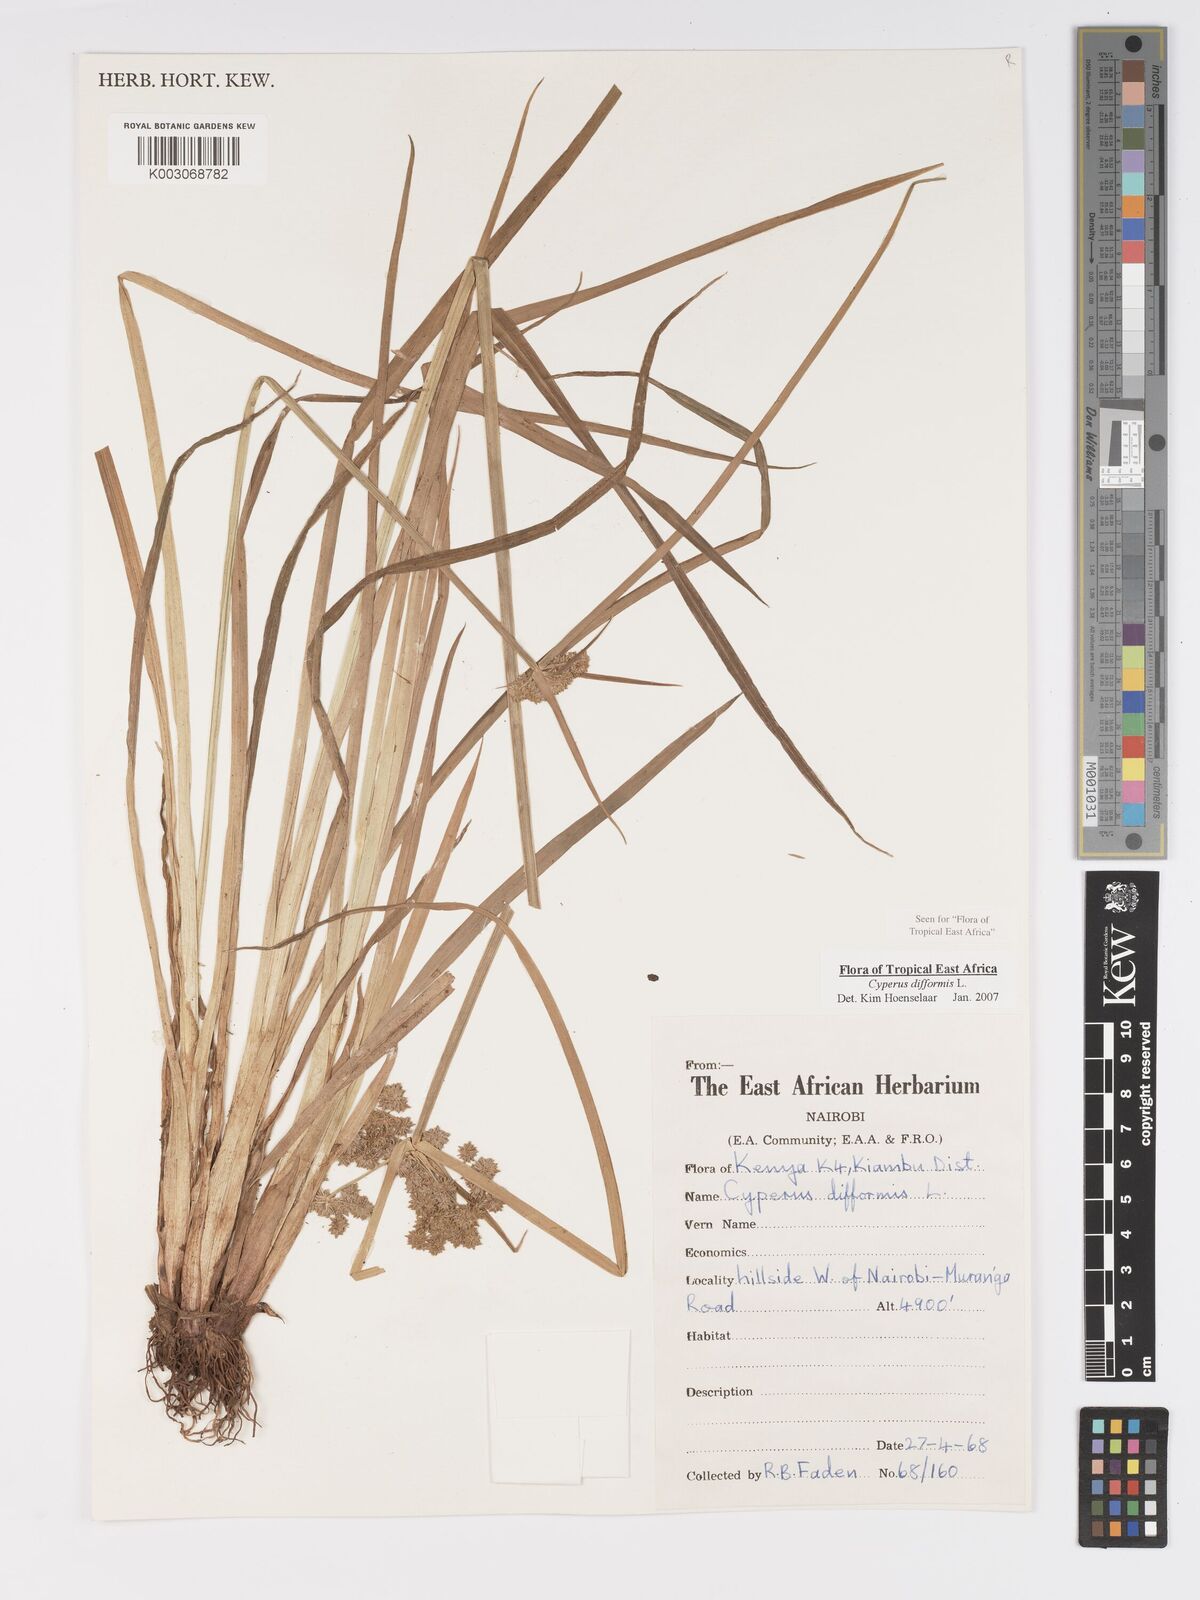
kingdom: Plantae
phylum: Tracheophyta
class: Liliopsida
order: Poales
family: Cyperaceae
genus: Cyperus
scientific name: Cyperus difformis
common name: Variable flatsedge
